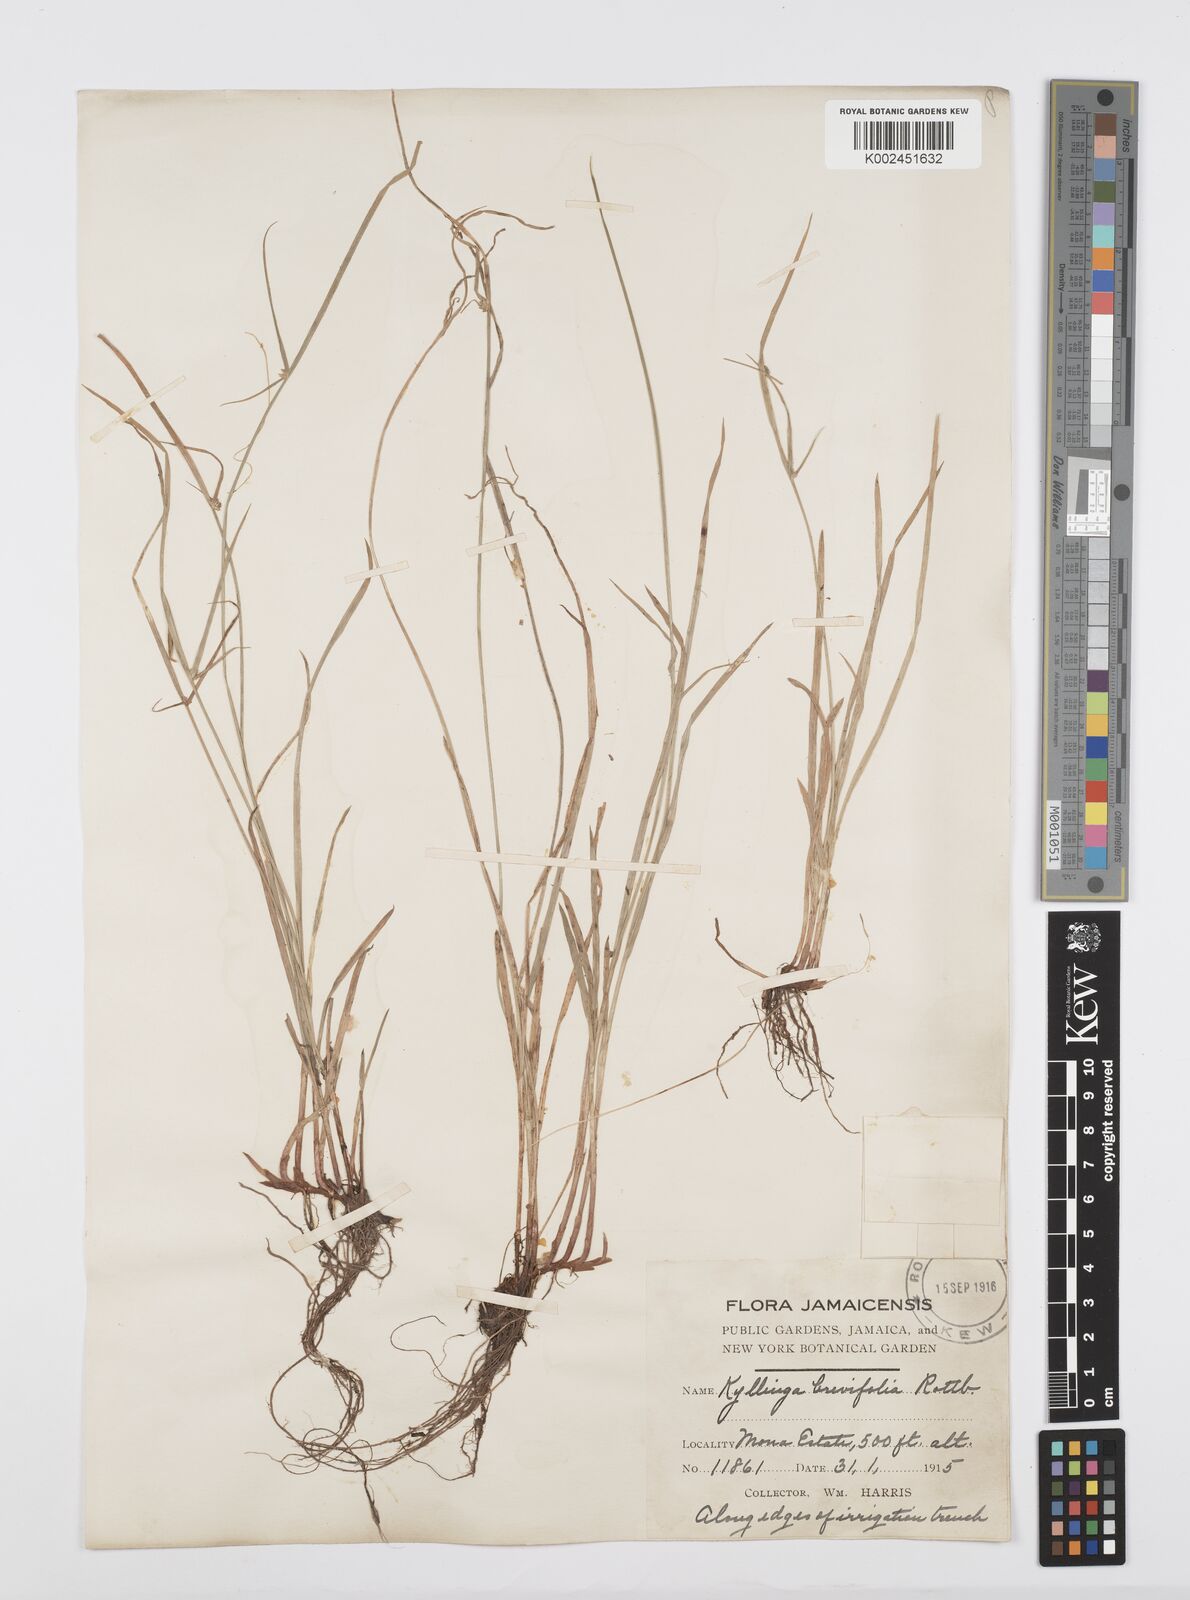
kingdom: Plantae
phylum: Tracheophyta
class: Liliopsida
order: Poales
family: Cyperaceae
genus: Cyperus
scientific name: Cyperus brevifolius
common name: Globe kyllinga
